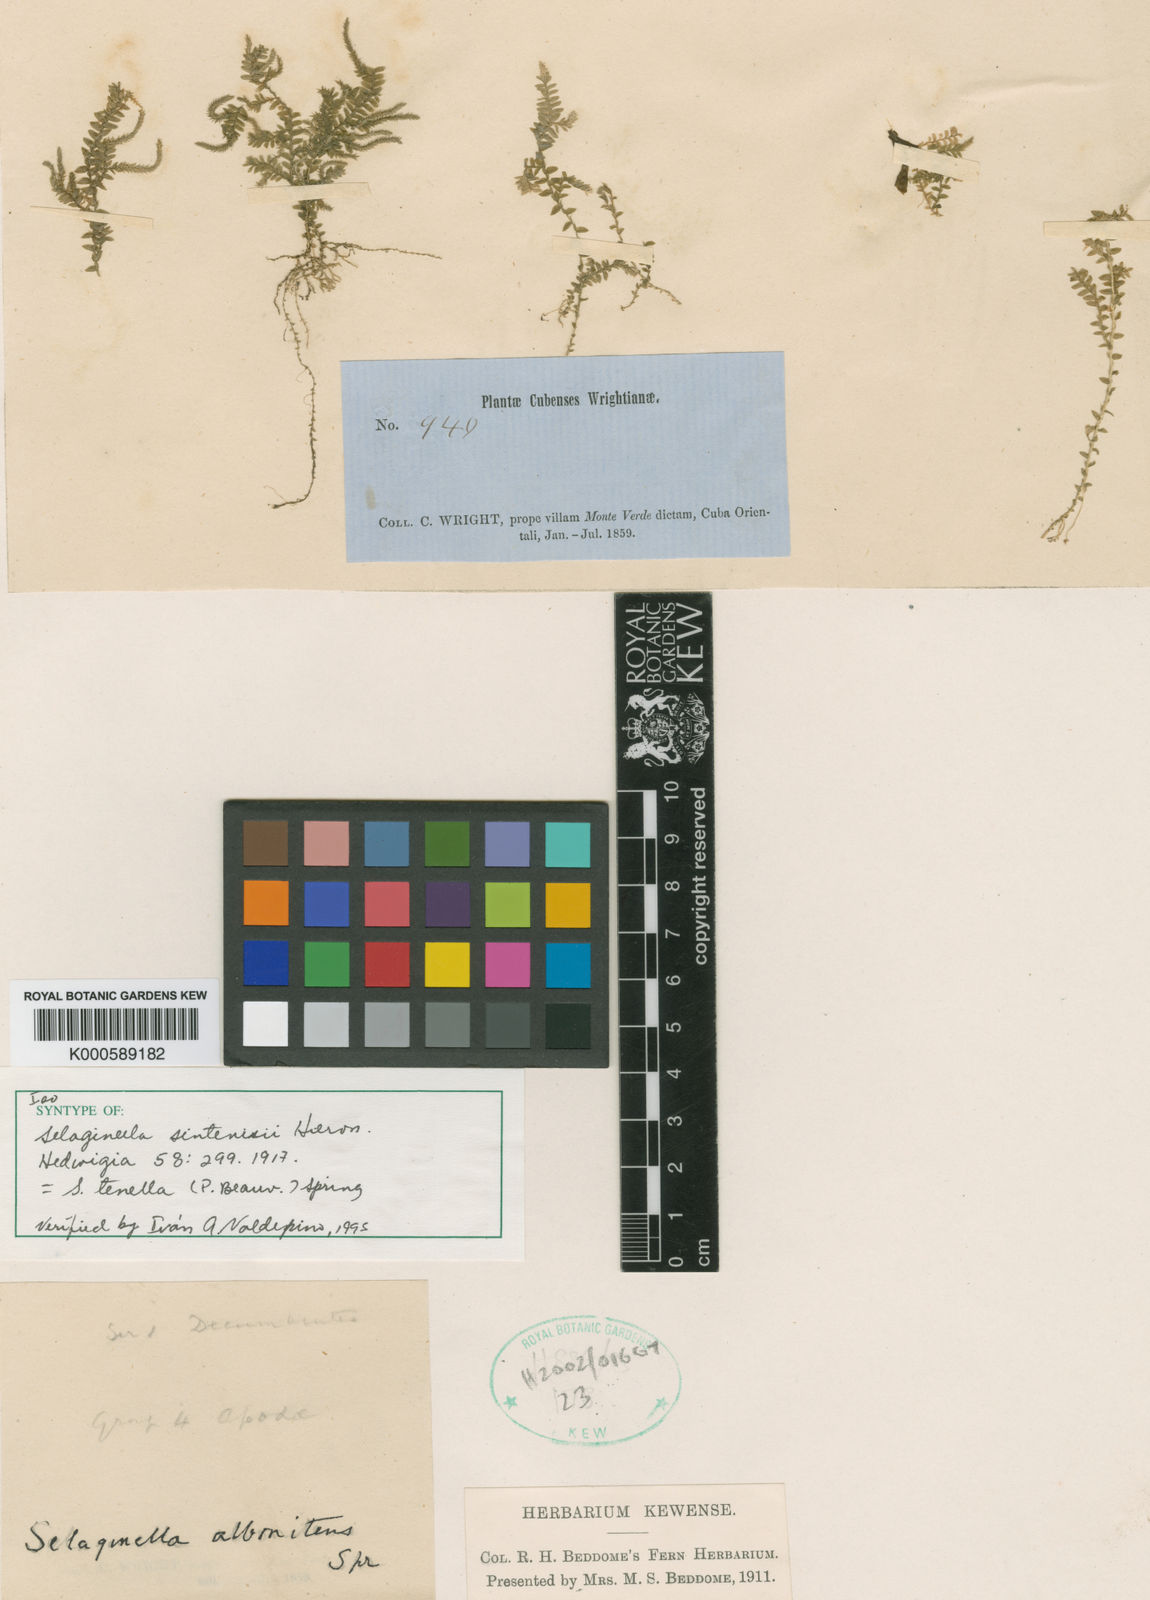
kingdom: Plantae
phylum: Tracheophyta
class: Lycopodiopsida
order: Selaginellales
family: Selaginellaceae
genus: Selaginella
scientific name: Selaginella tenella
